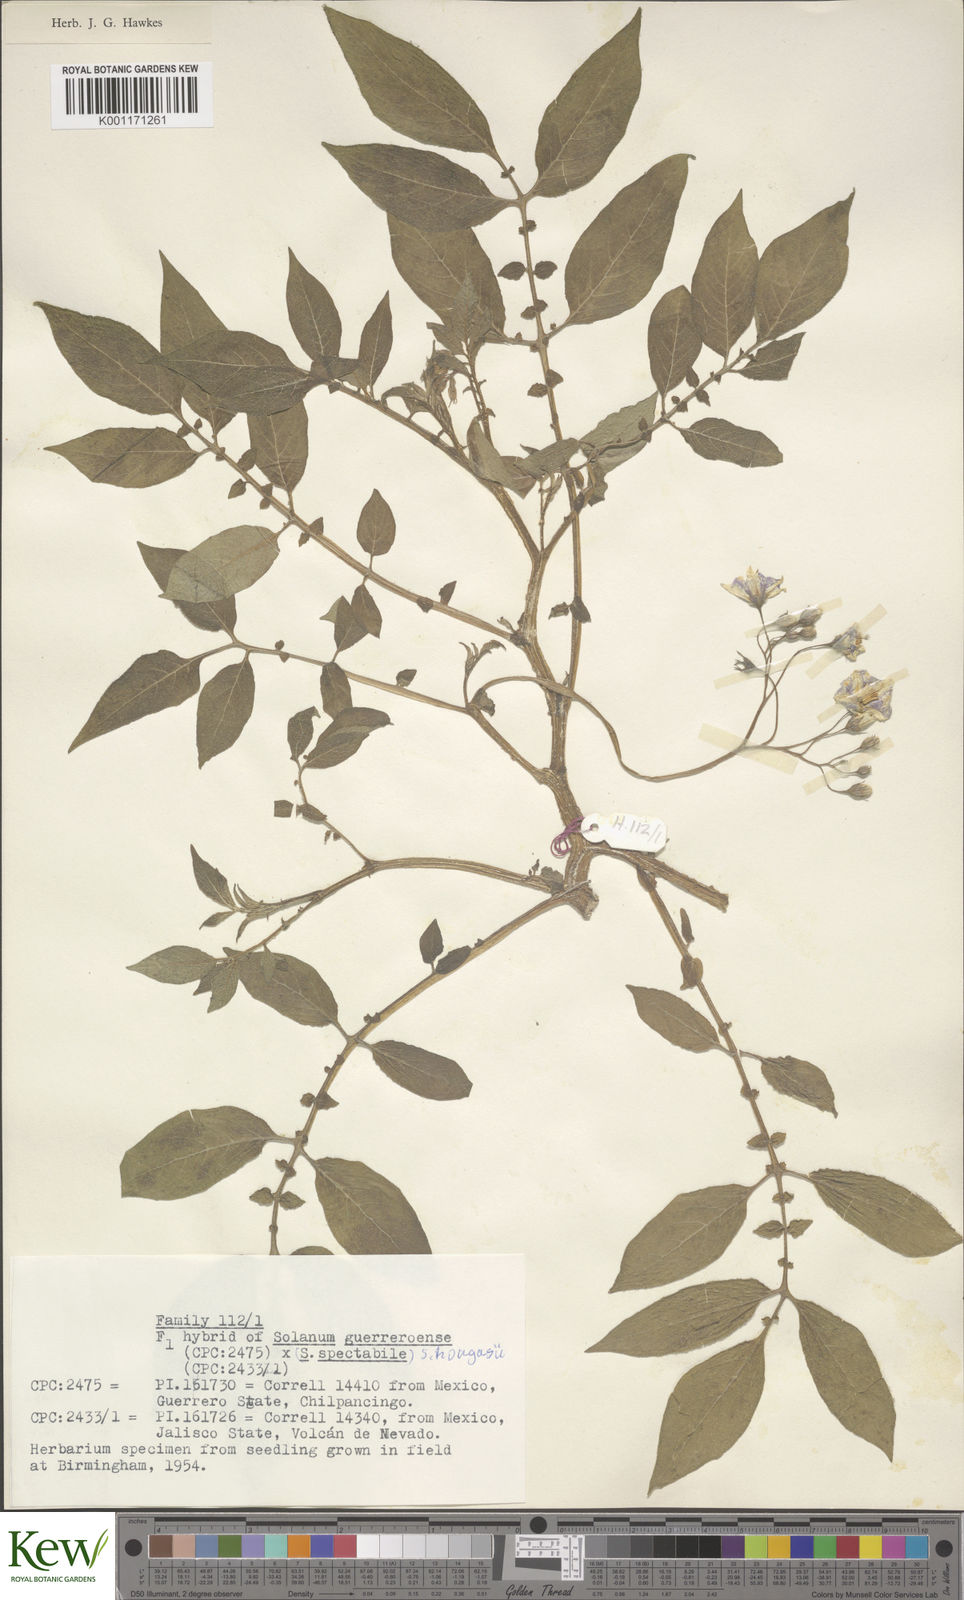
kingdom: Plantae
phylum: Tracheophyta
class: Magnoliopsida
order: Solanales
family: Solanaceae
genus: Solanum
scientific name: Solanum guerreroense
